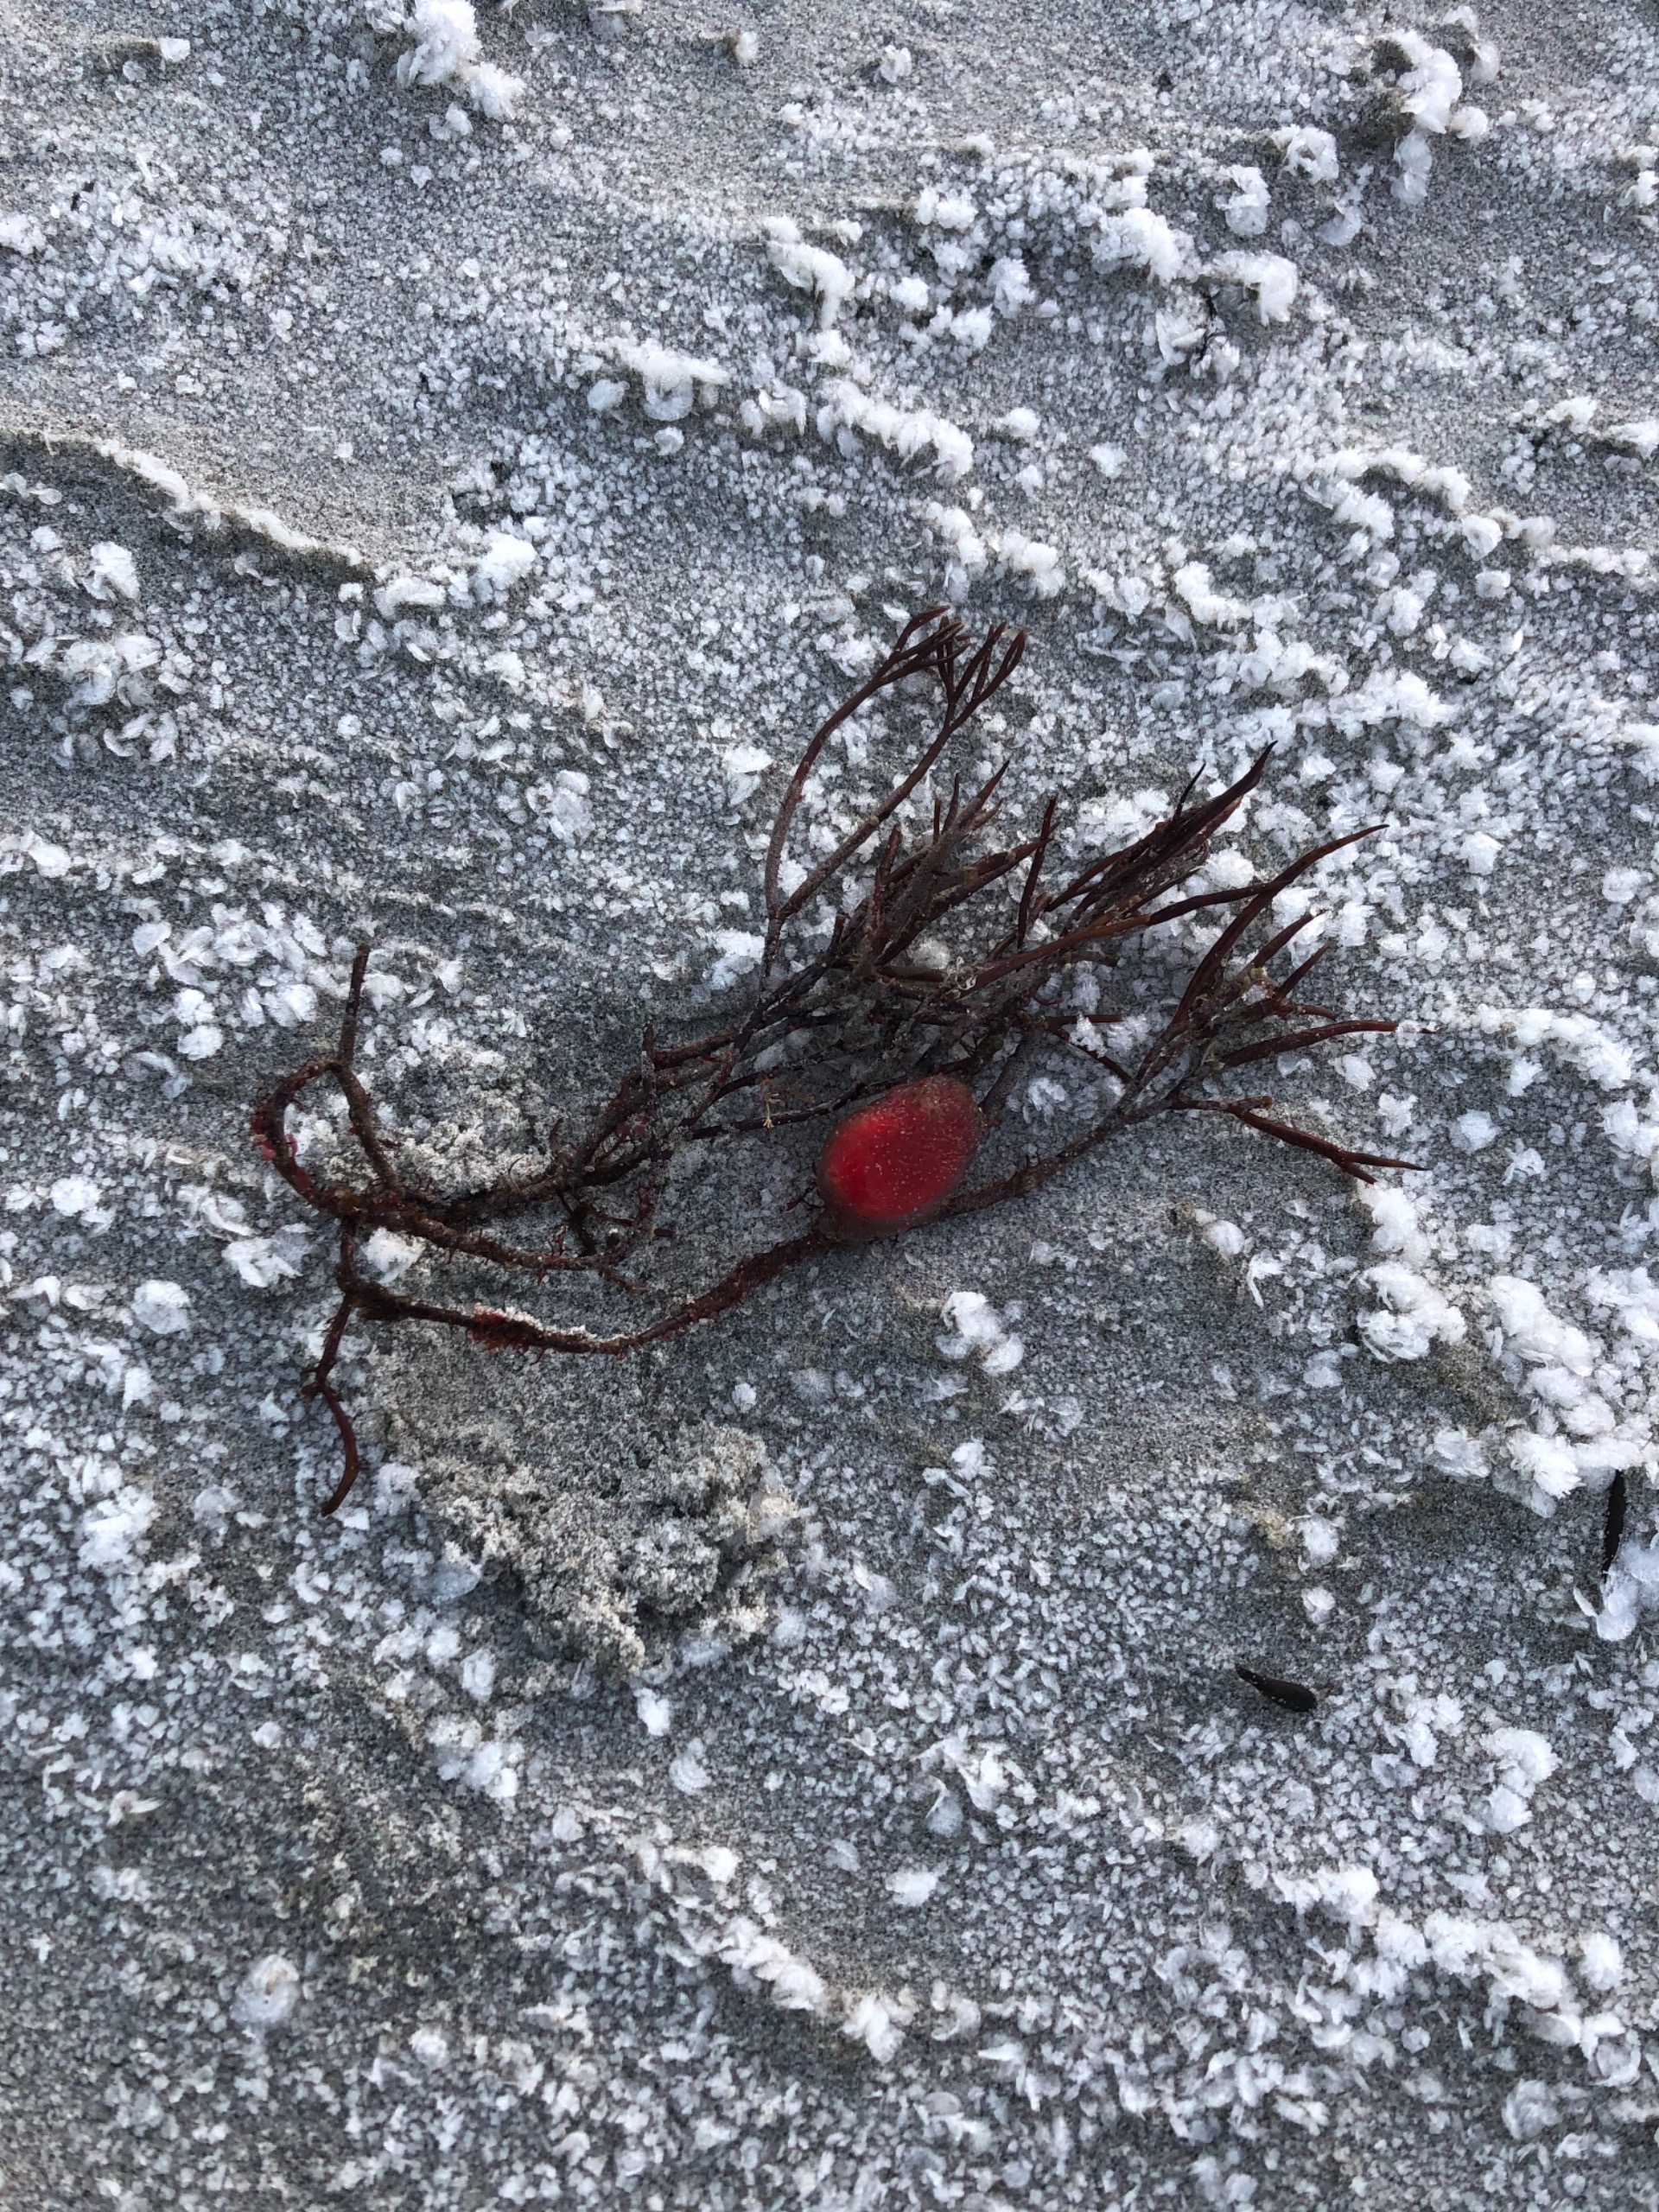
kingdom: Plantae
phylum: Rhodophyta
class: Florideophyceae
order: Gigartinales
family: Furcellariaceae
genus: Furcellaria
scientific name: Furcellaria lumbricalis
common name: Gaffeltang
